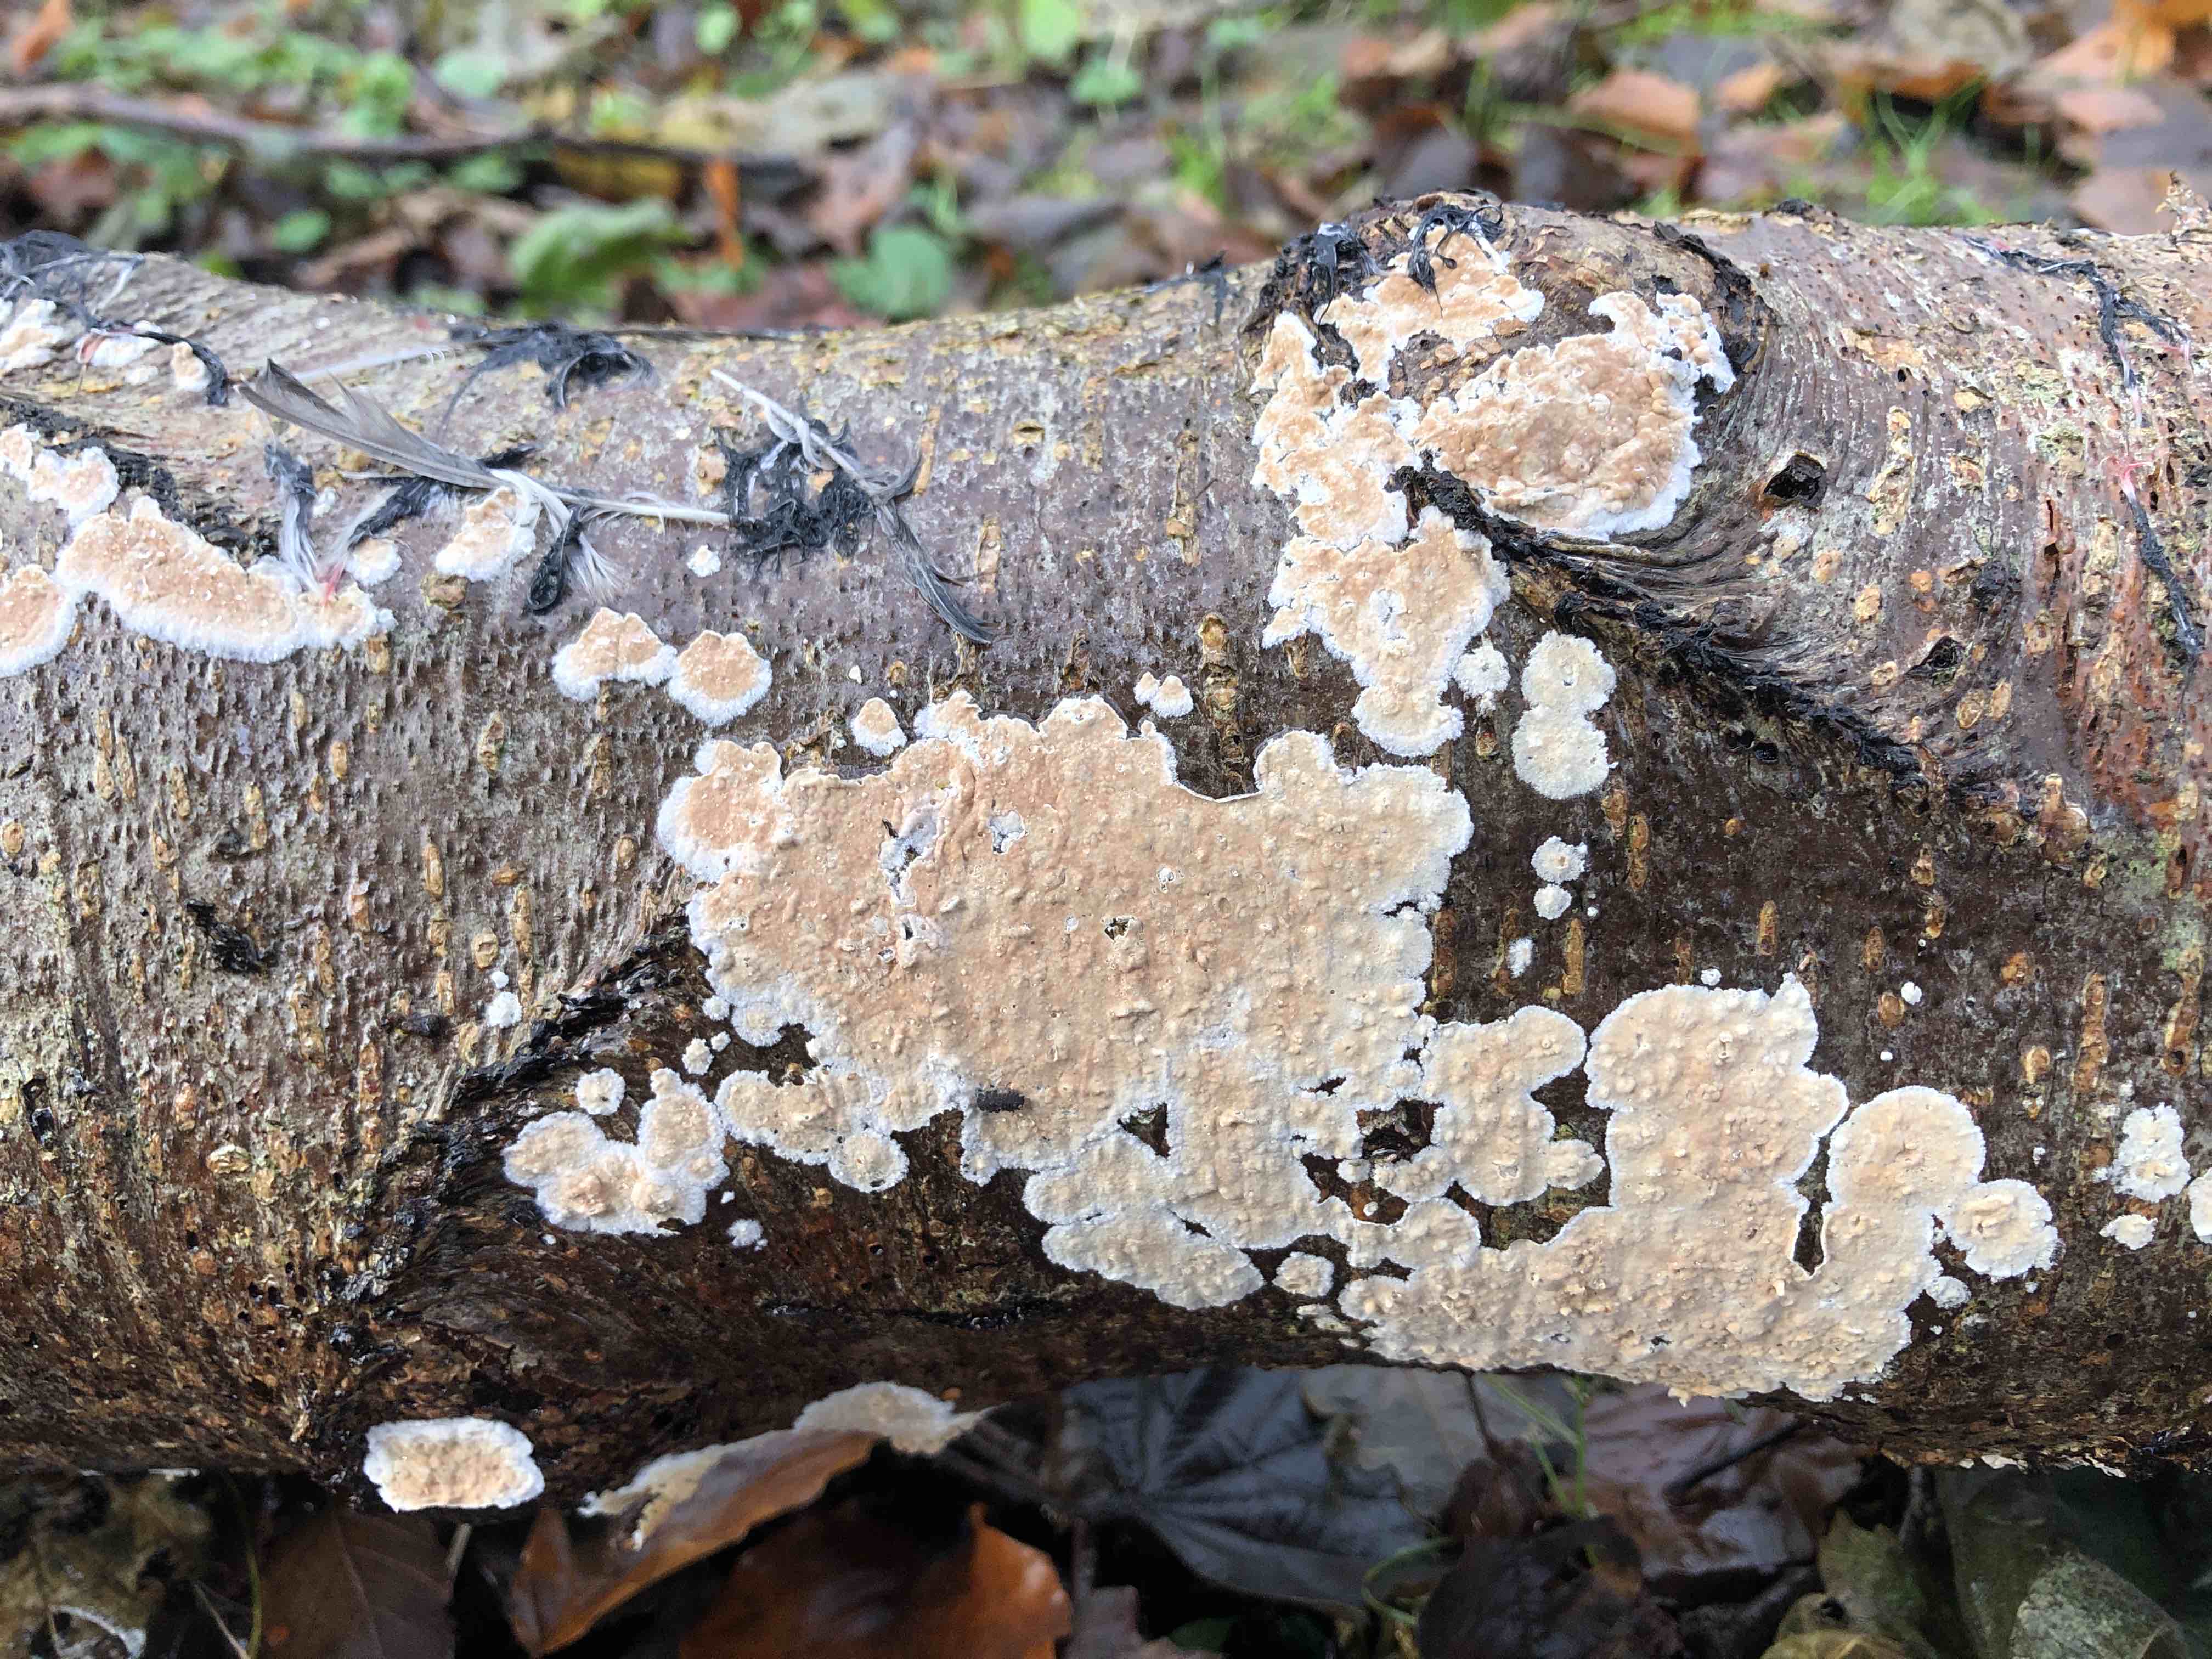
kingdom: Fungi
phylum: Basidiomycota
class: Agaricomycetes
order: Agaricales
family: Physalacriaceae
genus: Cylindrobasidium
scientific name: Cylindrobasidium evolvens
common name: sprækkehinde
